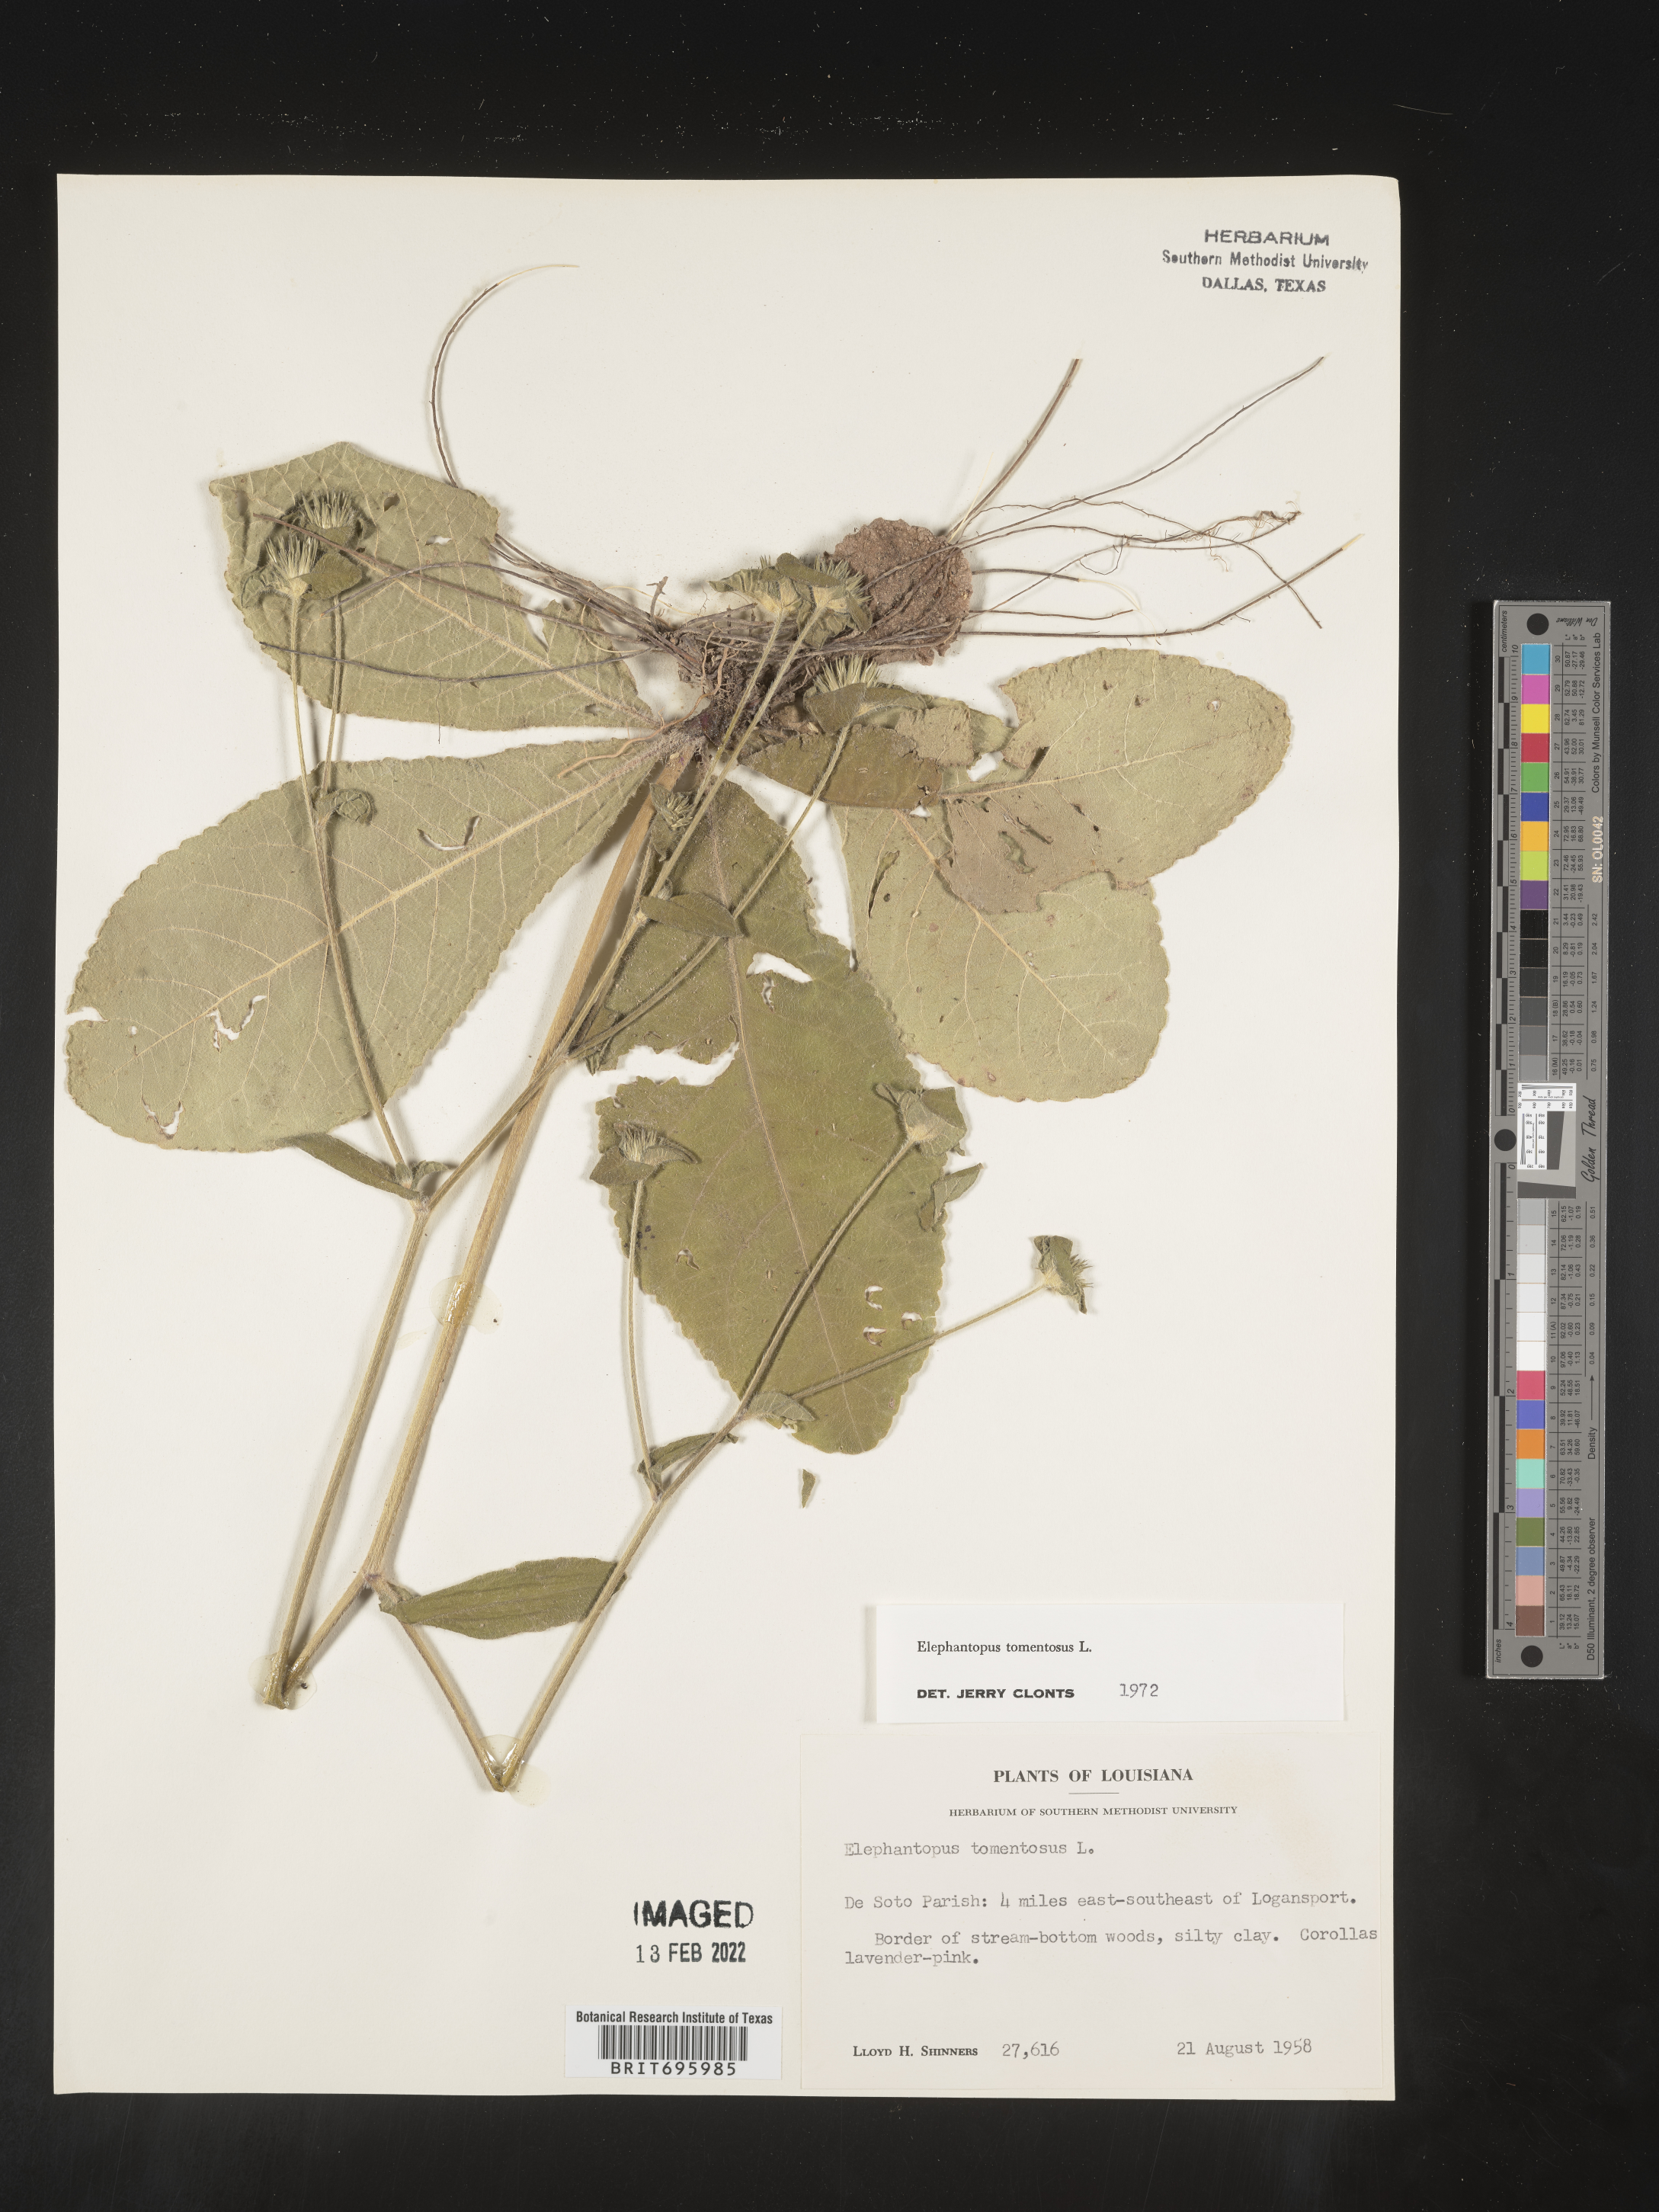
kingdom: Plantae
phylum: Tracheophyta
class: Magnoliopsida
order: Asterales
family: Asteraceae
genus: Elephantopus
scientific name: Elephantopus tomentosus
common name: Tobacco-weed
